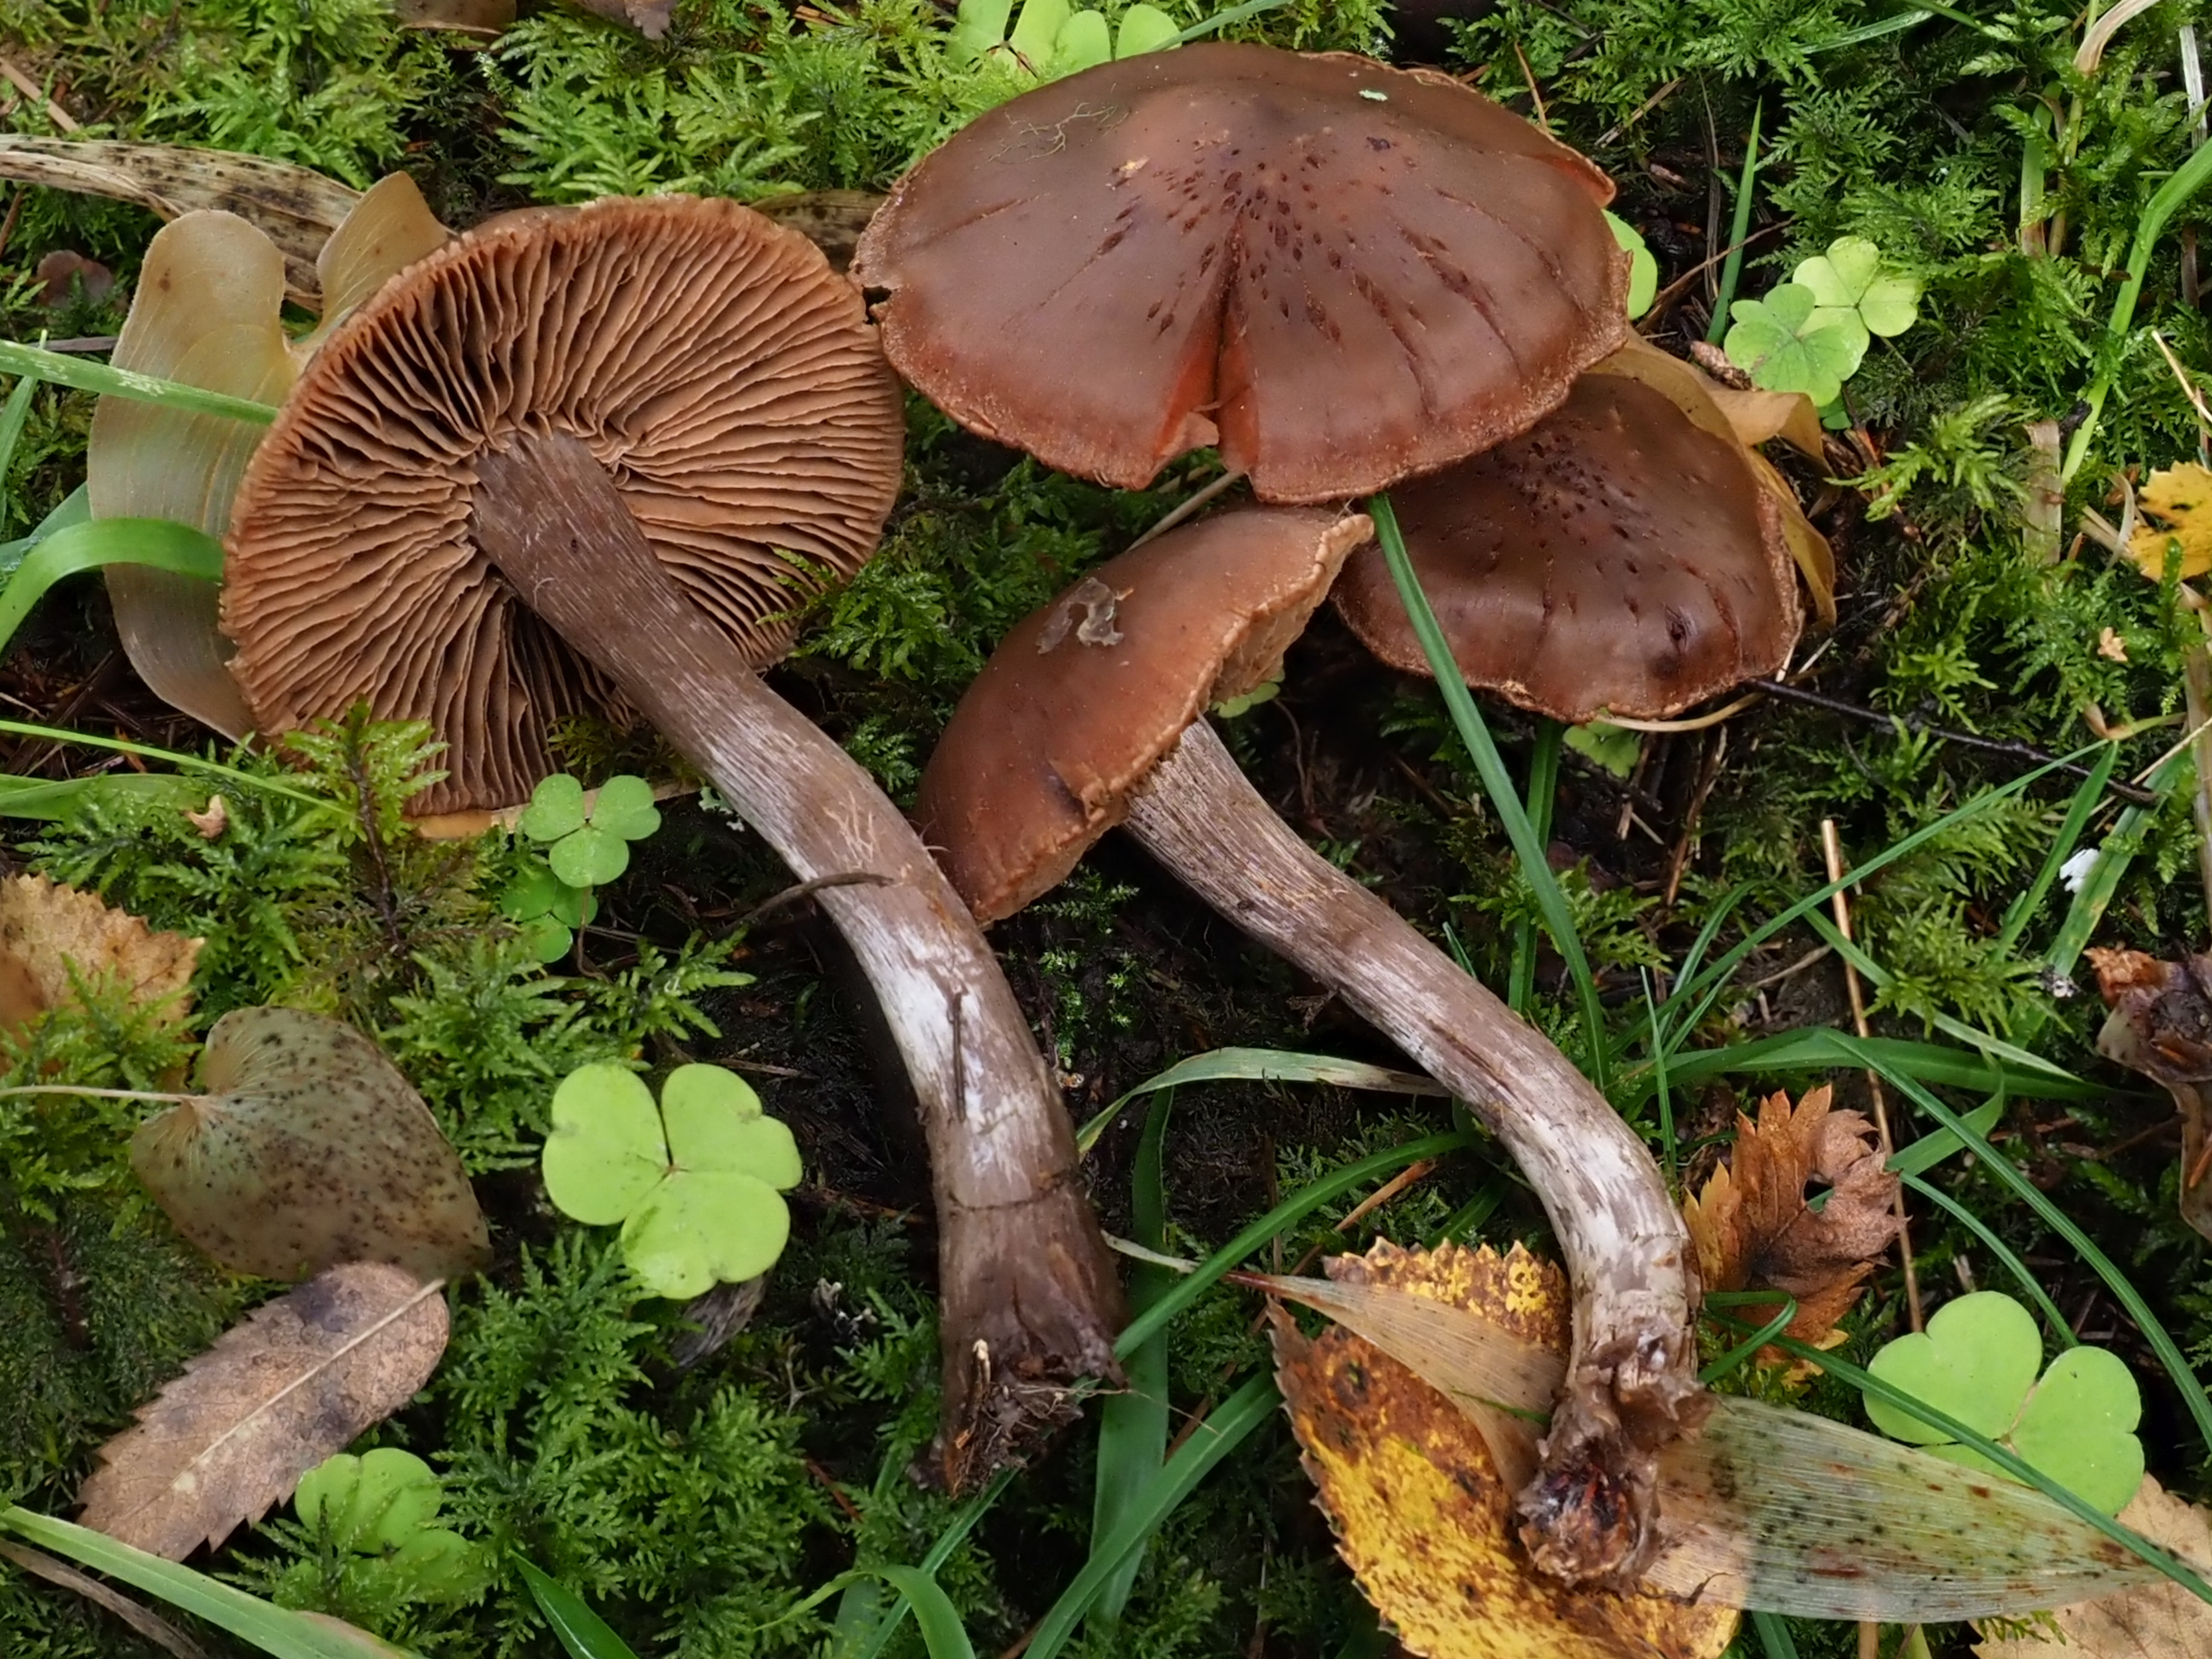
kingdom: Fungi
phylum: Basidiomycota
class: Agaricomycetes
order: Agaricales
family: Cortinariaceae
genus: Cortinarius
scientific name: Cortinarius
